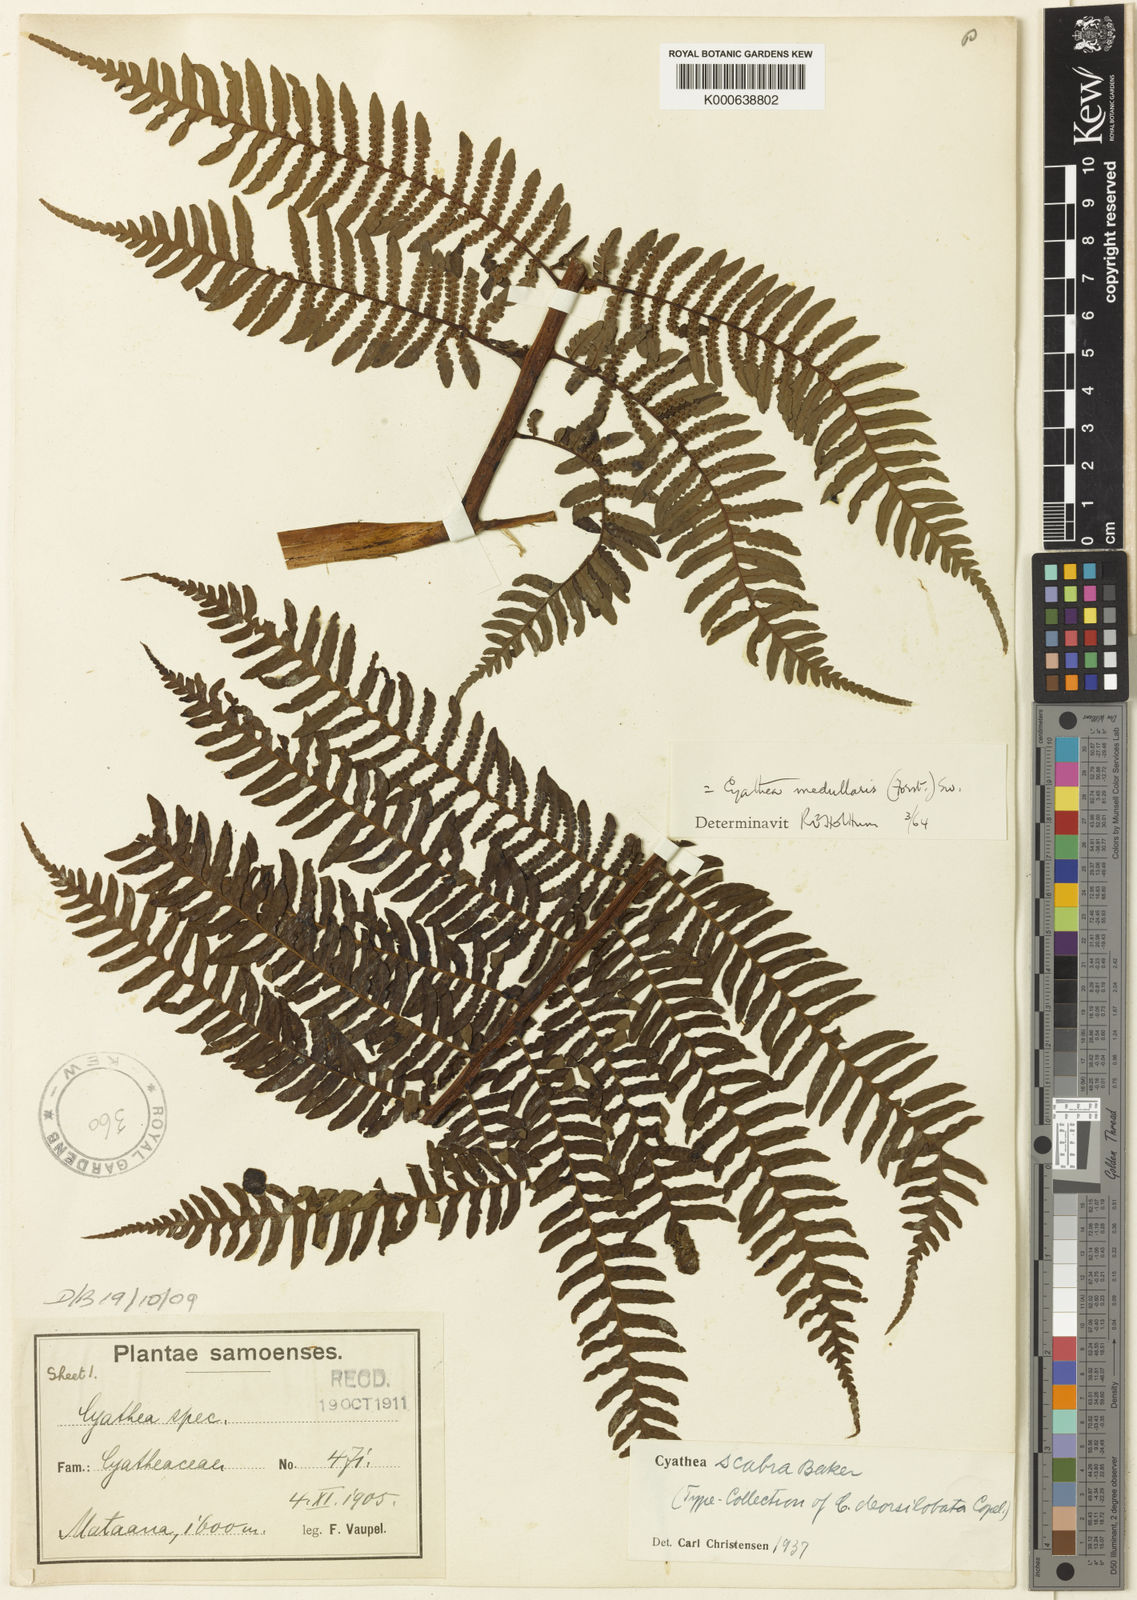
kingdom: Plantae
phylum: Tracheophyta
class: Polypodiopsida
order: Cyatheales
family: Cyatheaceae
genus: Sphaeropteris
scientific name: Sphaeropteris medullaris
